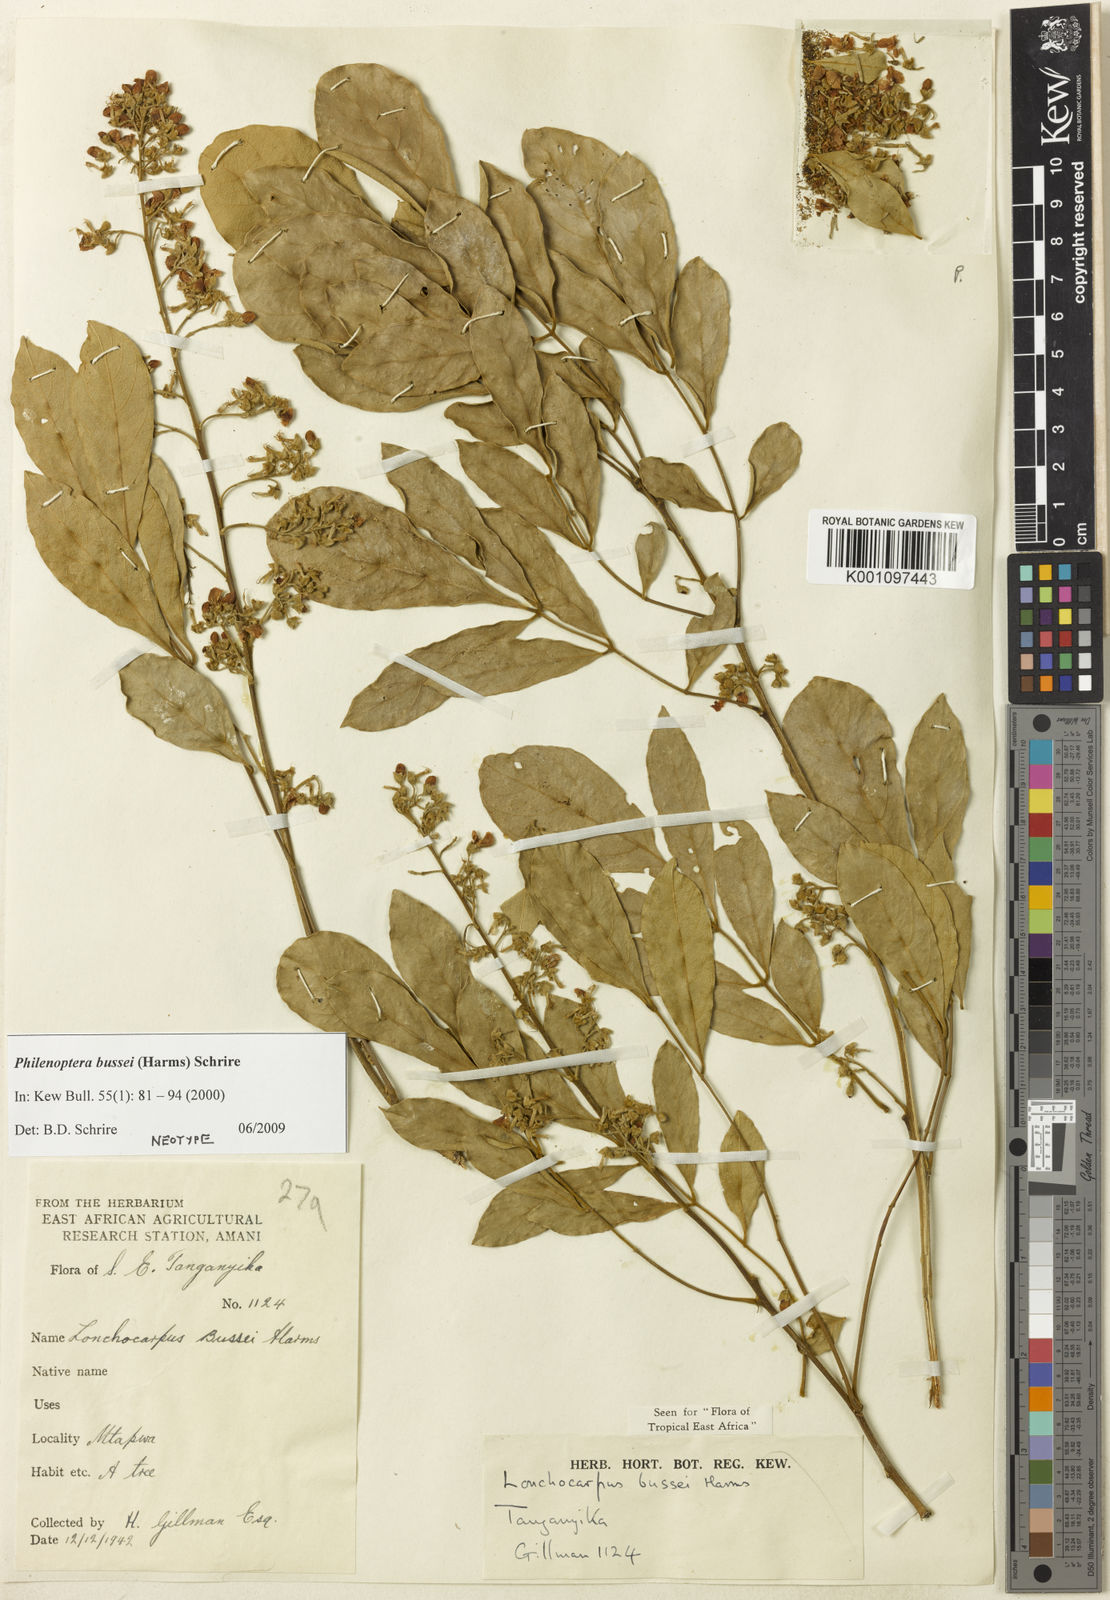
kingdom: Plantae
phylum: Tracheophyta
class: Magnoliopsida
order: Fabales
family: Fabaceae
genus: Philenoptera
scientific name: Philenoptera bussei
